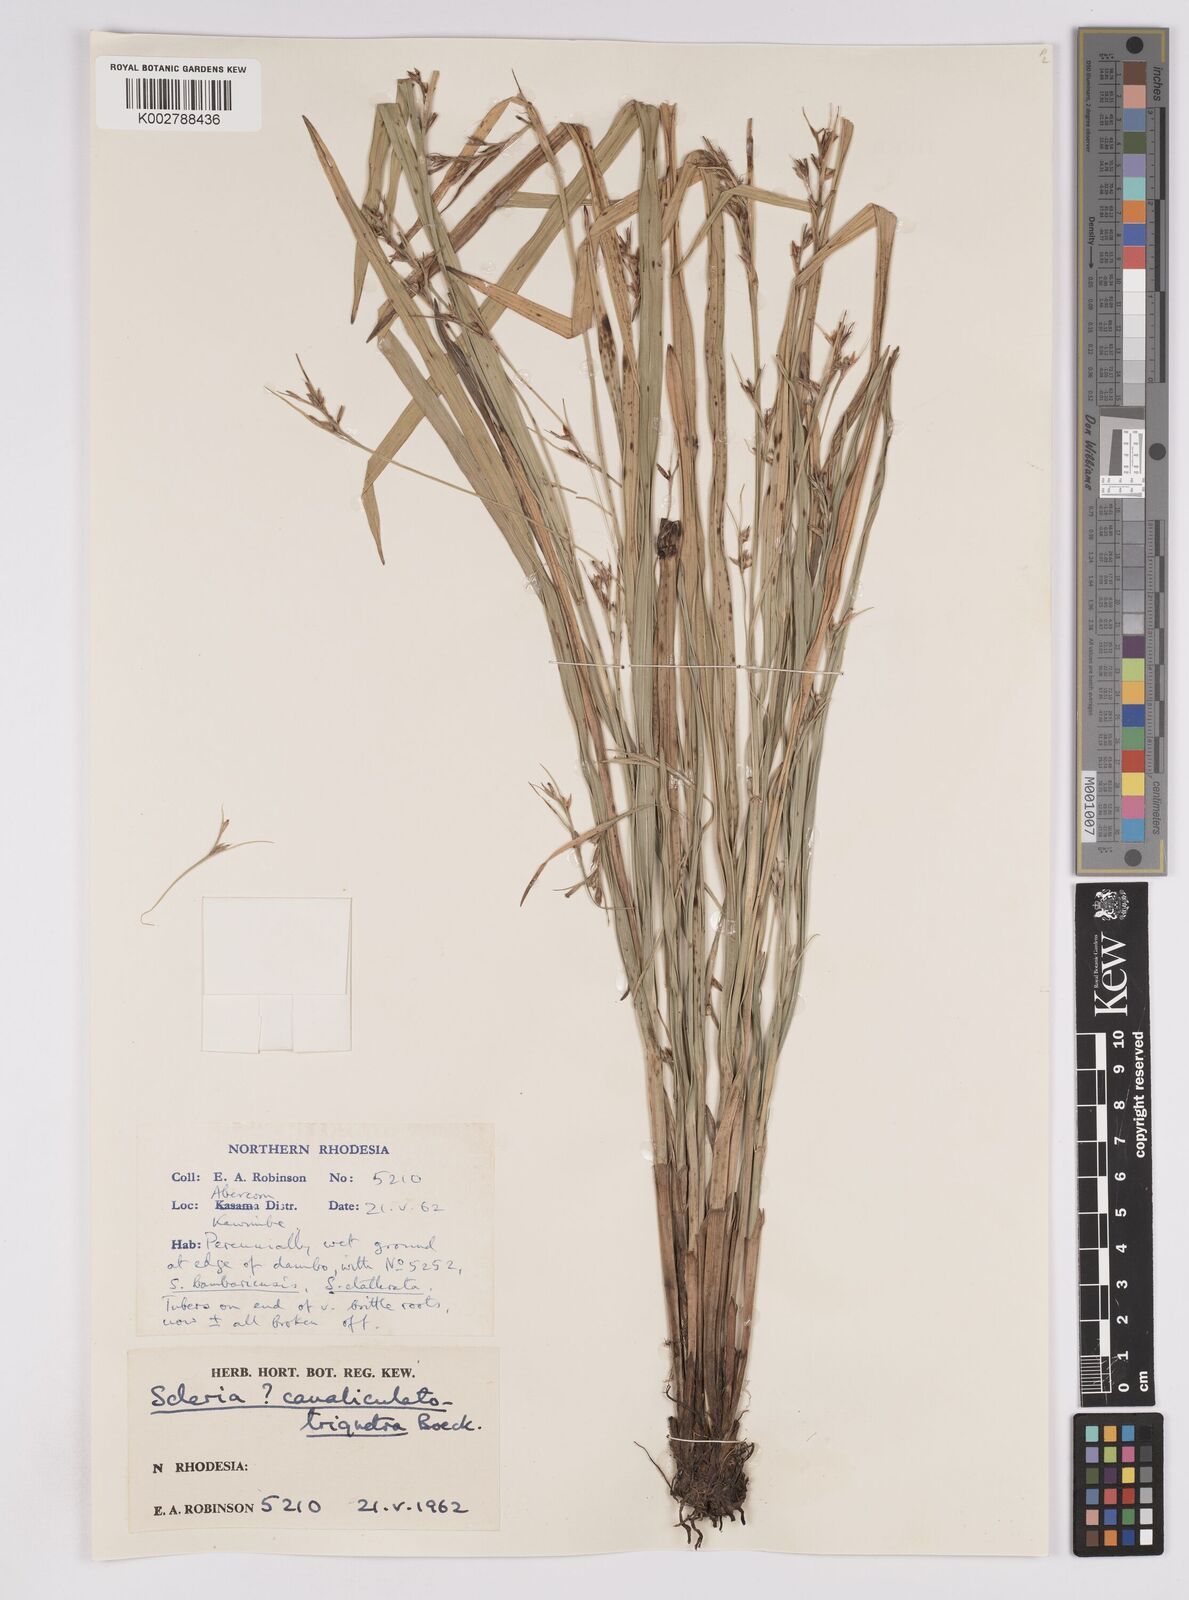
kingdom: Plantae
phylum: Tracheophyta
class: Liliopsida
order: Poales
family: Cyperaceae
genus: Scleria
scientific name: Scleria lagoensis
